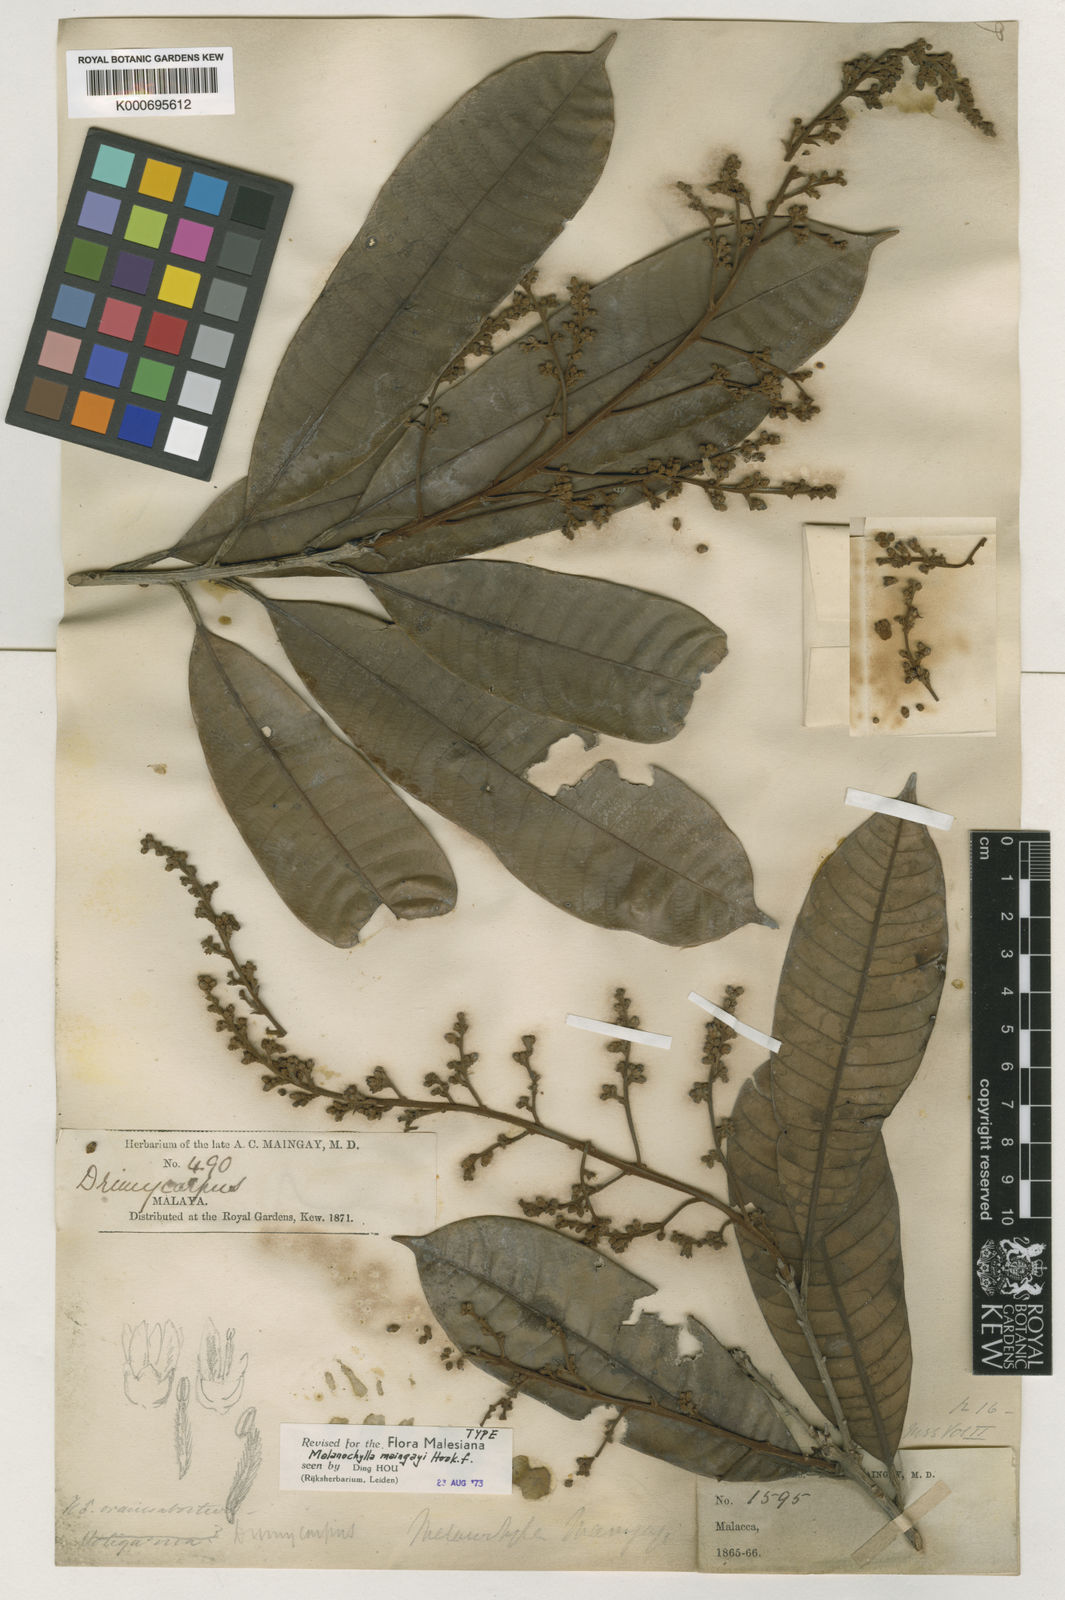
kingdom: Plantae
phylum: Tracheophyta
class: Magnoliopsida
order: Sapindales
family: Anacardiaceae
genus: Melanochyla
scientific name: Melanochyla caesia
